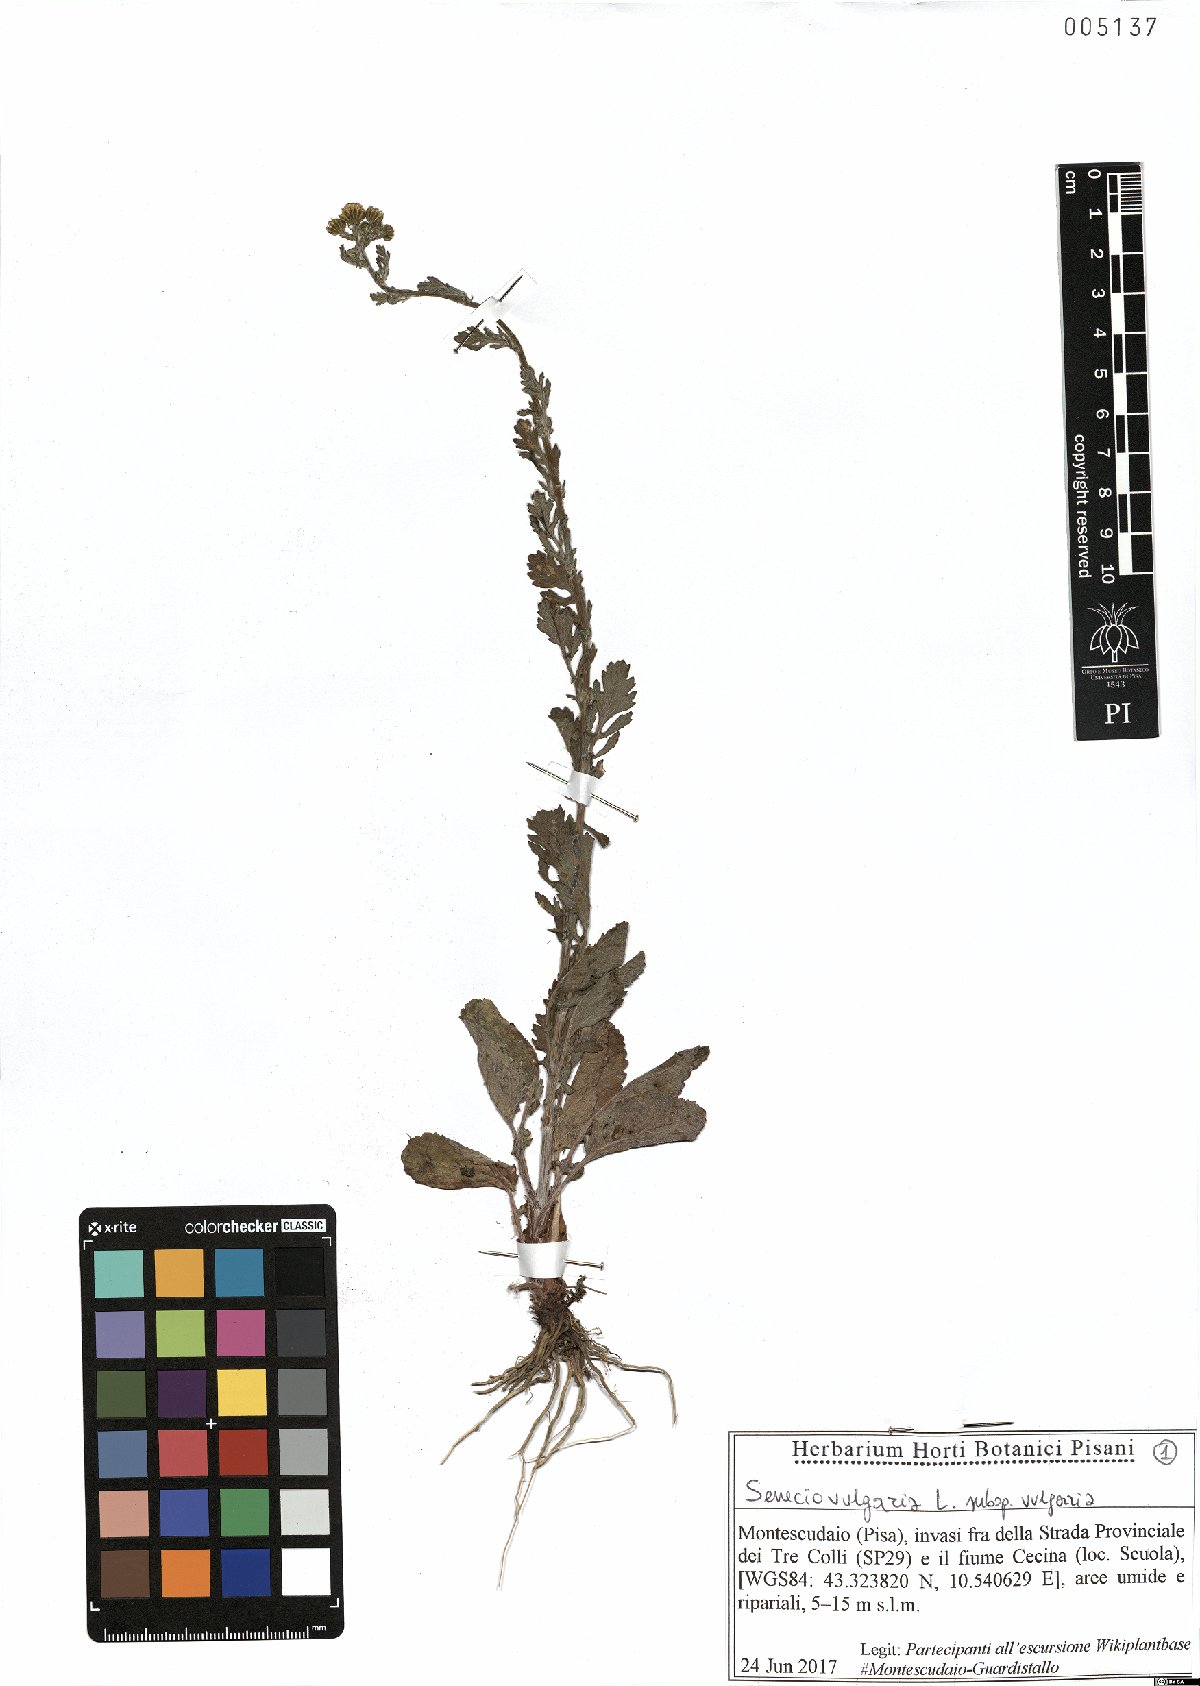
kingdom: Plantae
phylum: Tracheophyta
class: Magnoliopsida
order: Asterales
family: Asteraceae
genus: Senecio
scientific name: Senecio vulgaris
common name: Old-man-in-the-spring
